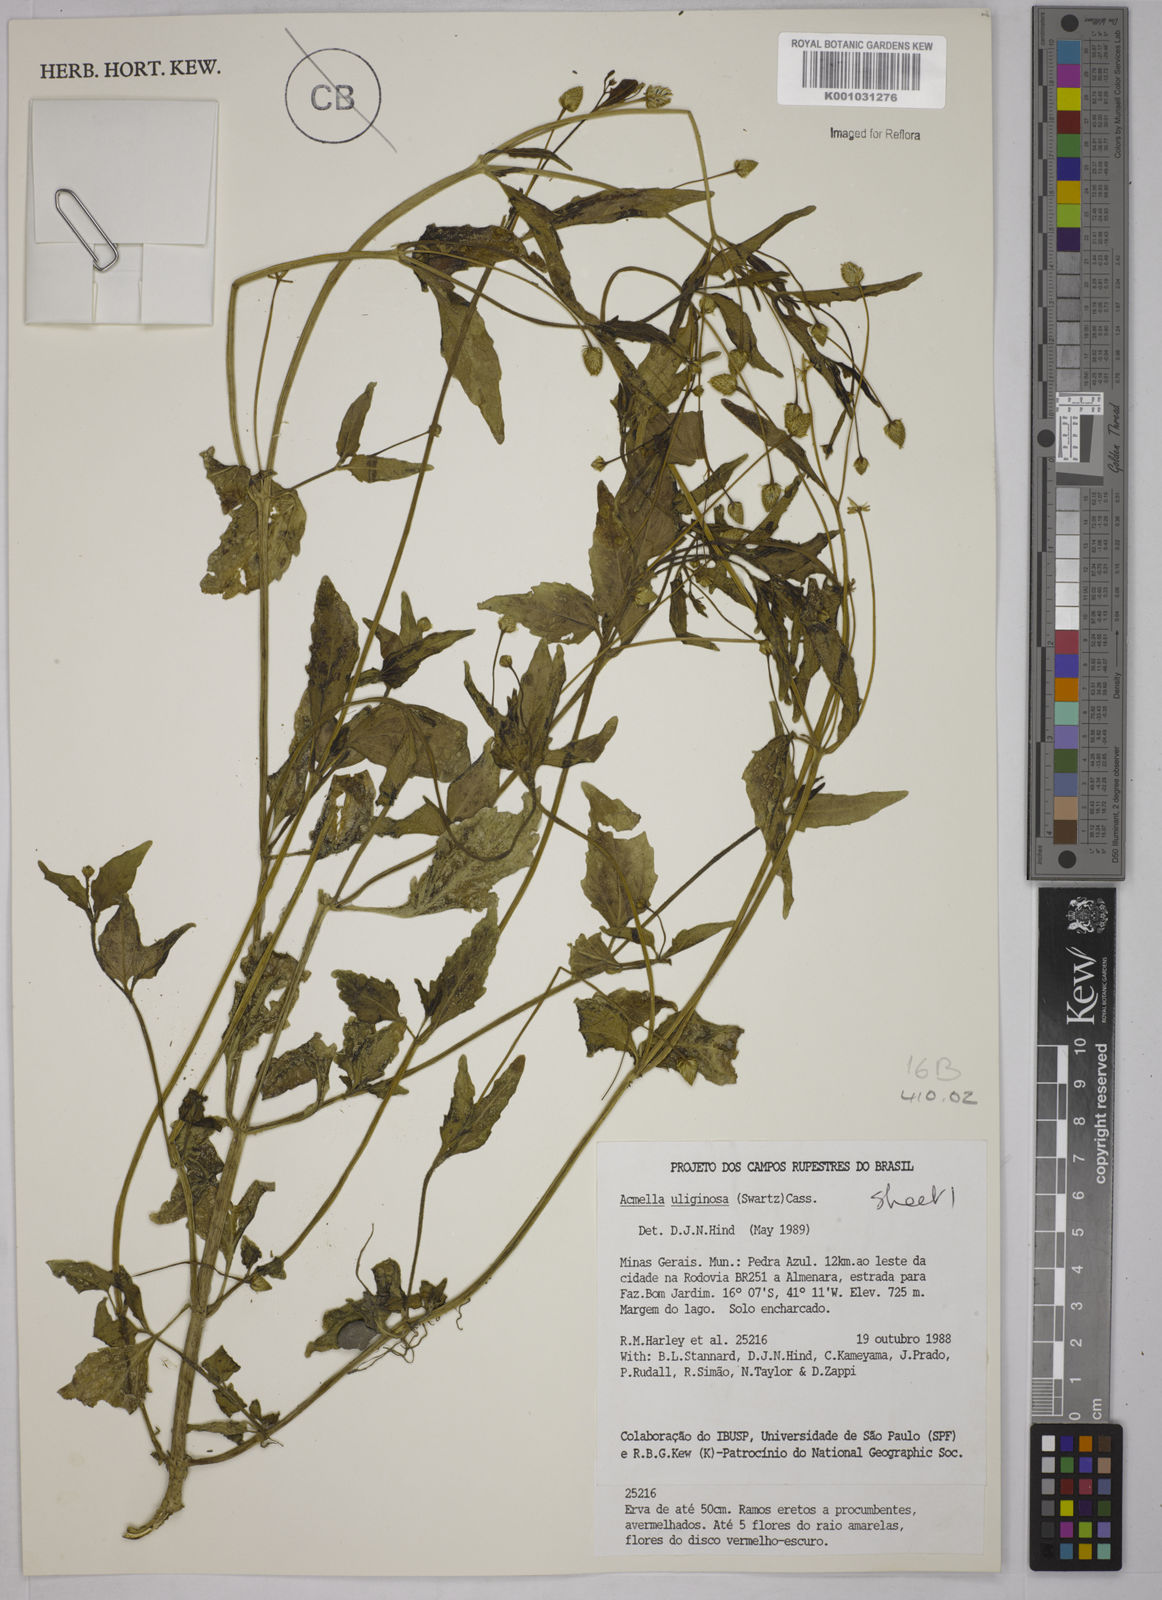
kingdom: Plantae
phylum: Tracheophyta
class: Magnoliopsida
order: Asterales
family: Asteraceae
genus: Acmella
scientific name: Acmella uliginosa
